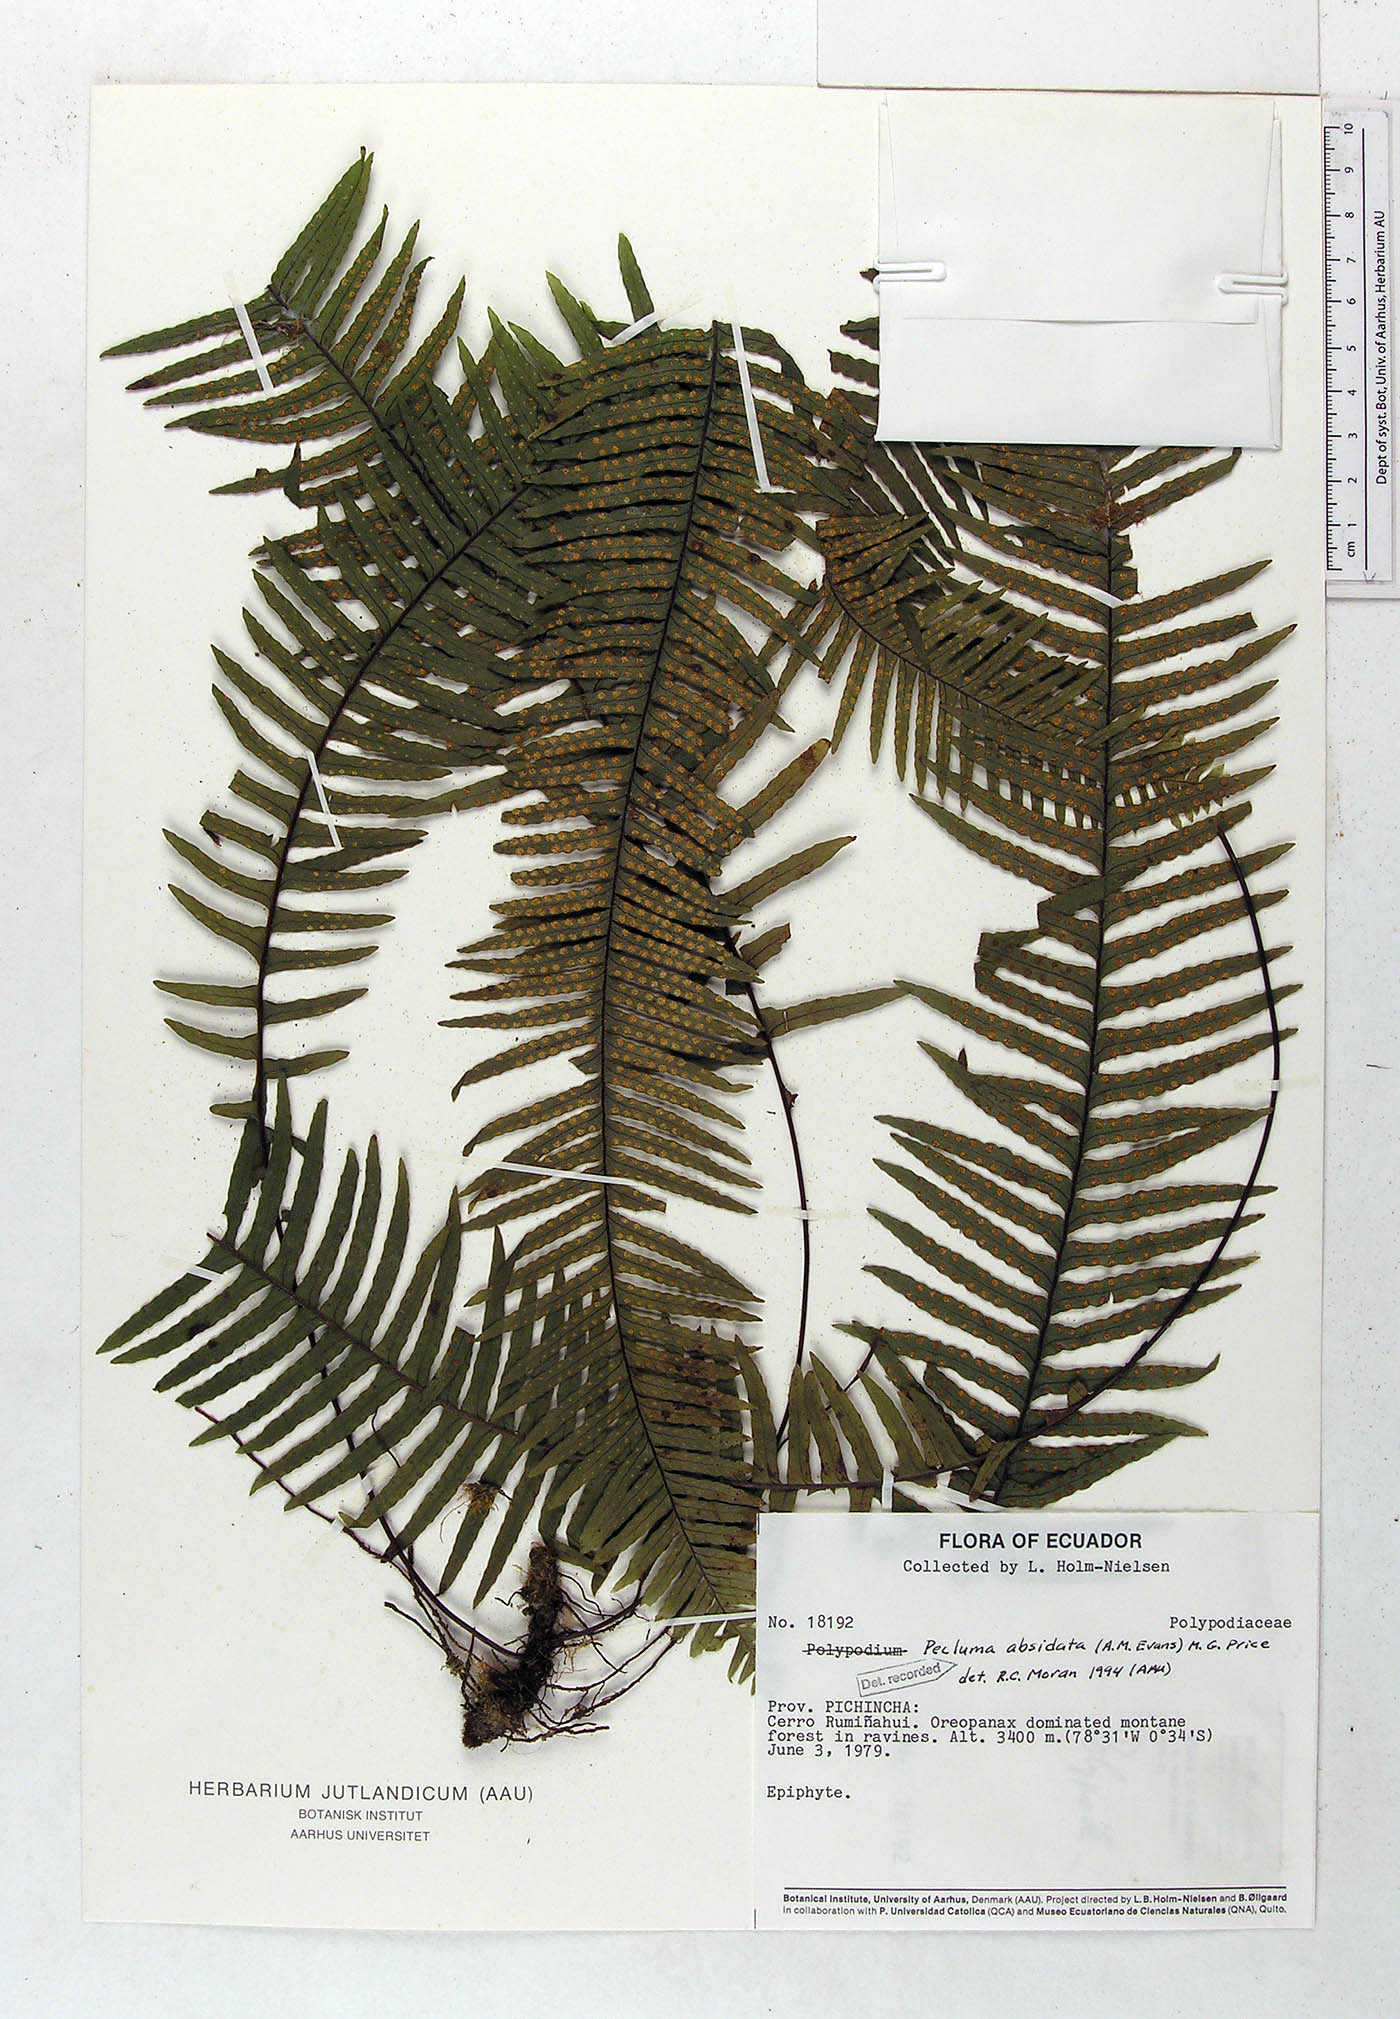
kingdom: Plantae
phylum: Tracheophyta
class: Polypodiopsida
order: Polypodiales
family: Polypodiaceae
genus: Pecluma
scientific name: Pecluma absidata
